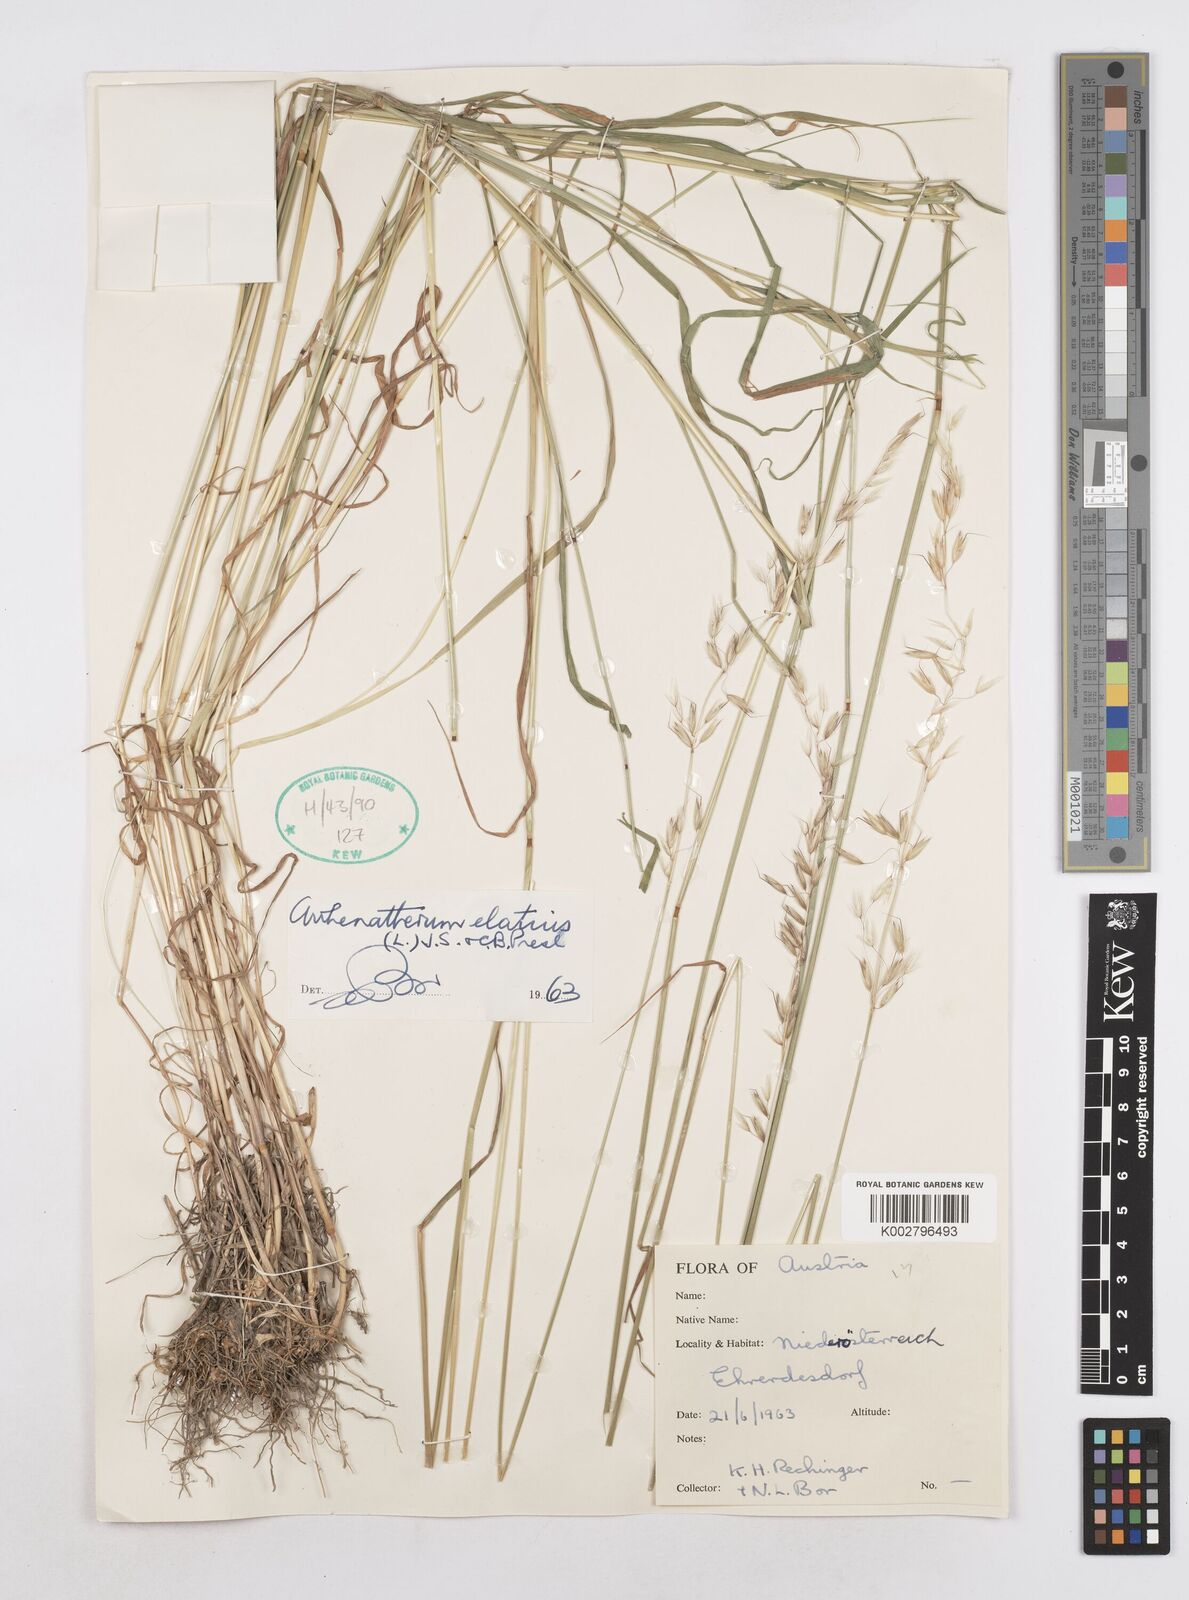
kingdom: Plantae
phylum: Tracheophyta
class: Liliopsida
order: Poales
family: Poaceae
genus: Arrhenatherum
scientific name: Arrhenatherum elatius
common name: Tall oatgrass
